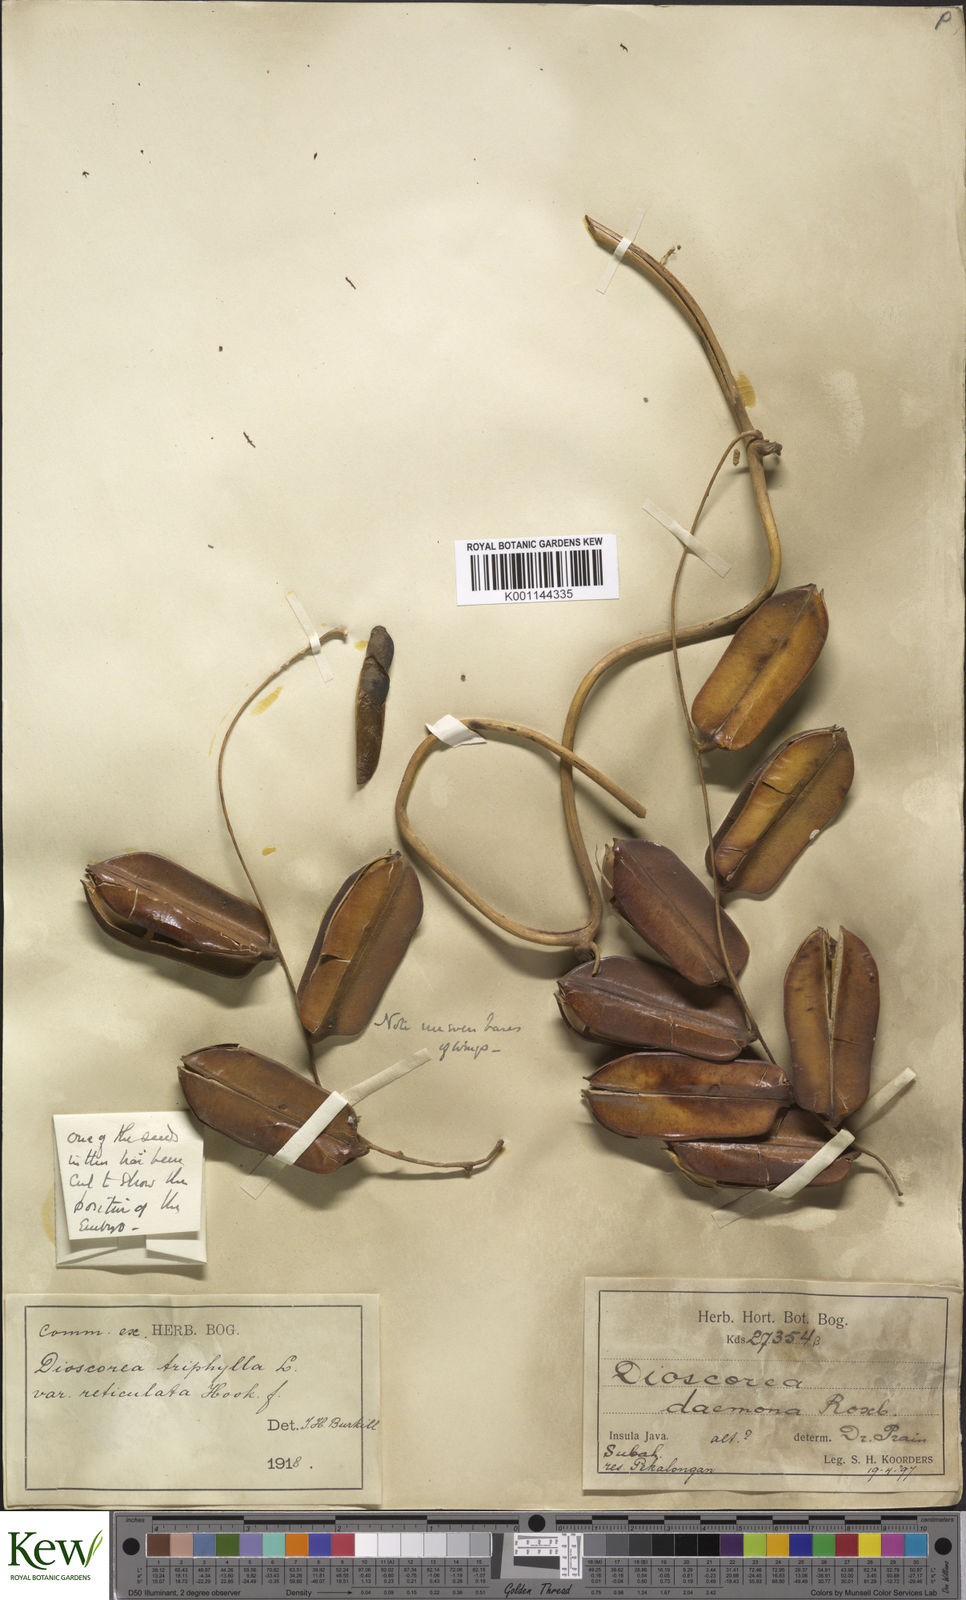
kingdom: Plantae
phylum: Tracheophyta
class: Liliopsida
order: Dioscoreales
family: Dioscoreaceae
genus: Dioscorea
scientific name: Dioscorea hispida
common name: Asiatic bitter yam
